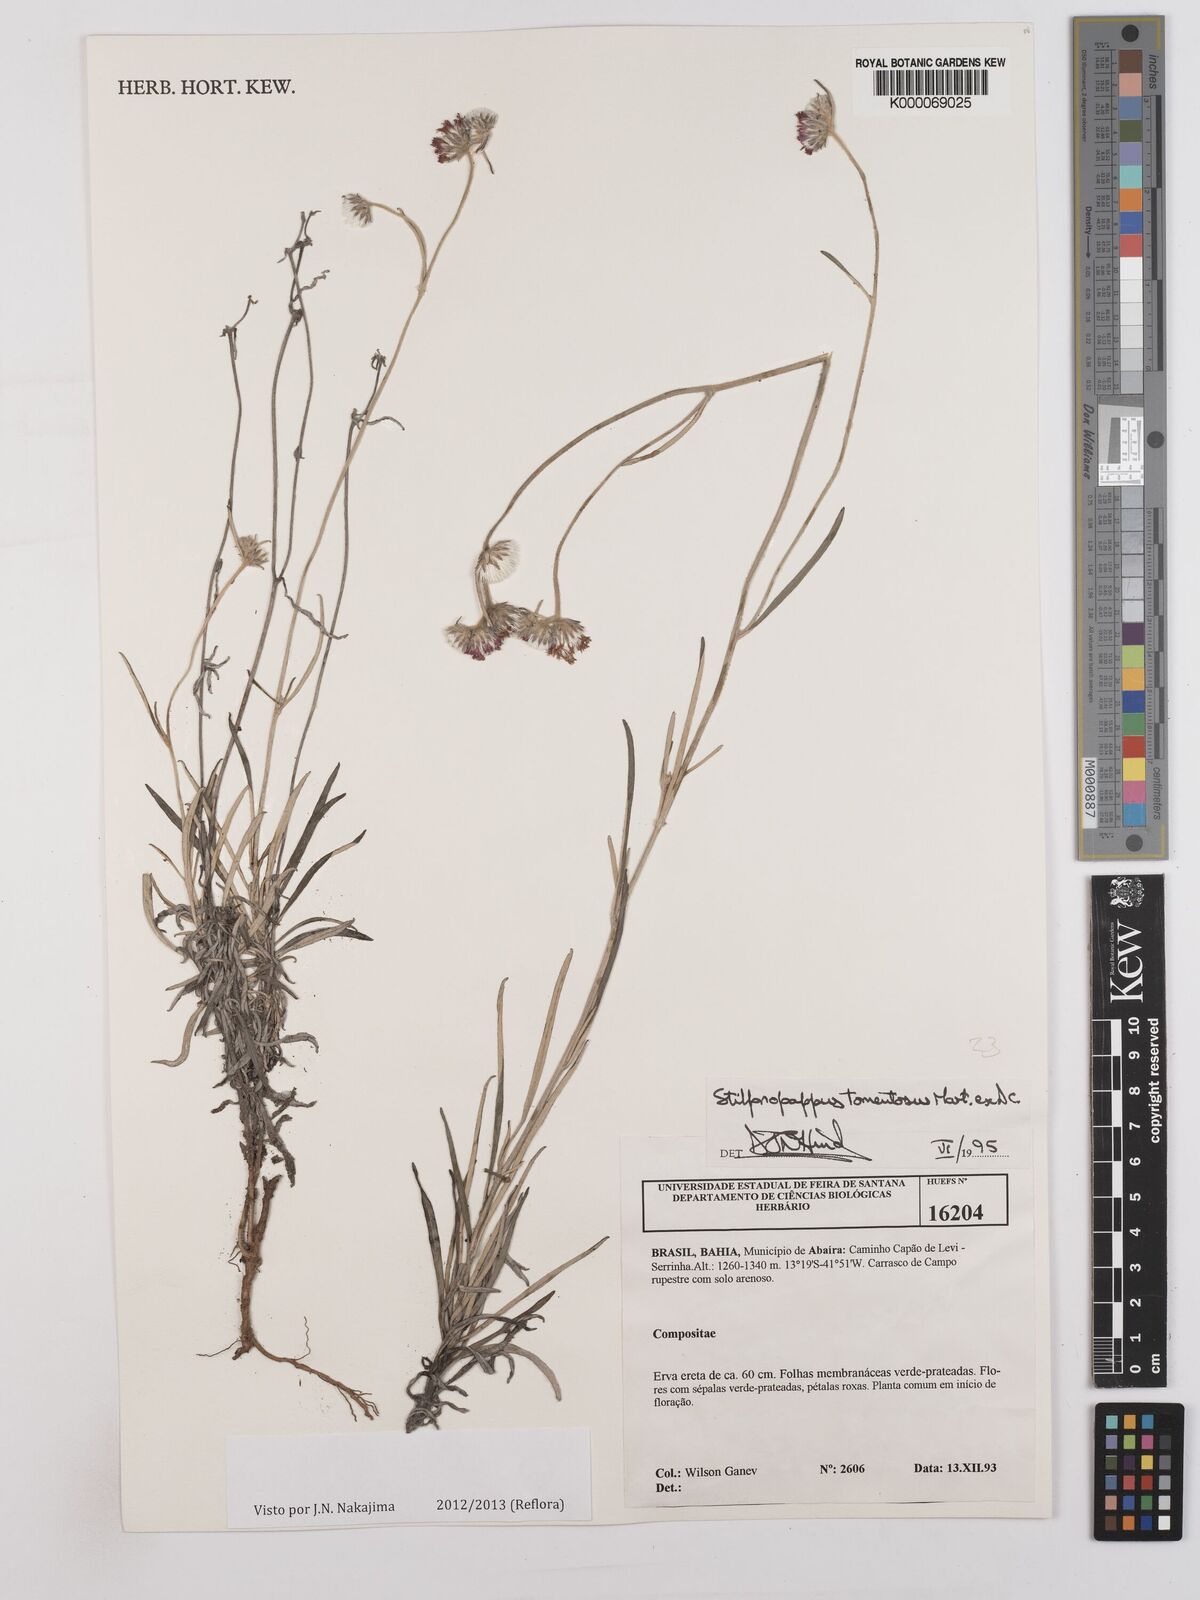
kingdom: Plantae
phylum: Tracheophyta
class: Magnoliopsida
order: Asterales
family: Asteraceae
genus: Stilpnopappus
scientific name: Stilpnopappus tomentosus
